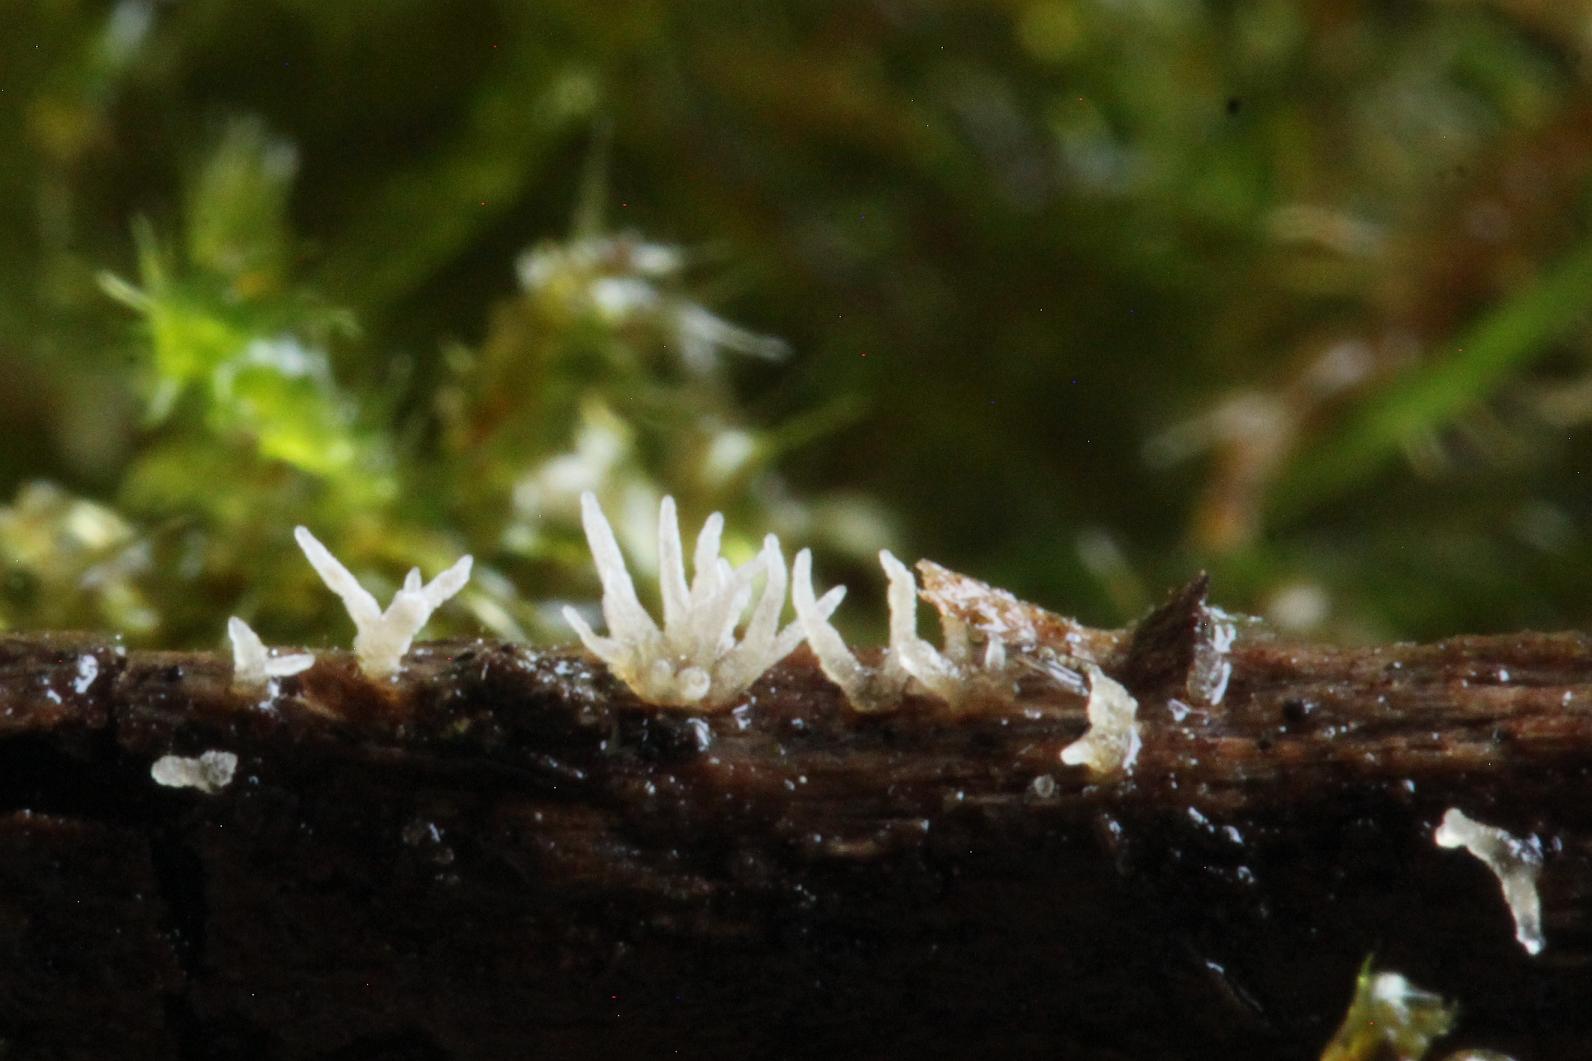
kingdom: Fungi
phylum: Ascomycota
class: Sordariomycetes
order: Hypocreales
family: Cordycipitaceae
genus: Isaria
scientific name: Isaria friesii
